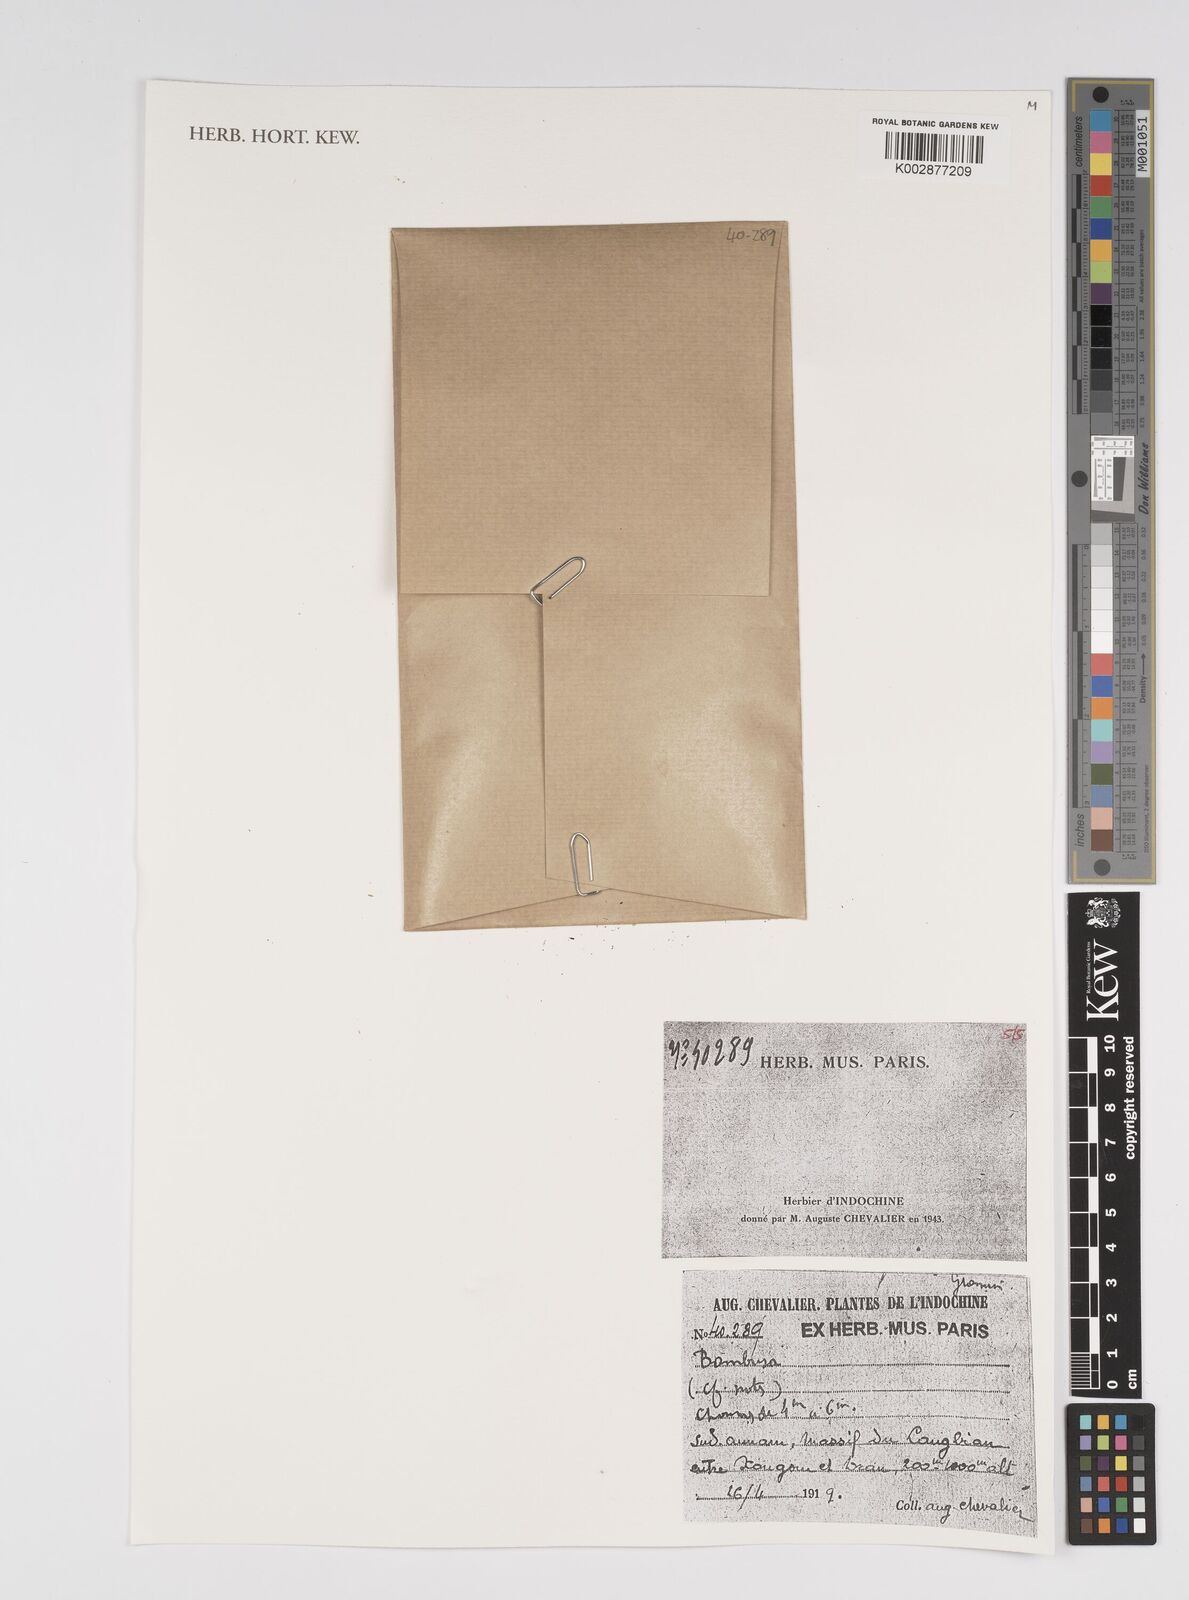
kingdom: Plantae
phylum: Tracheophyta
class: Liliopsida
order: Poales
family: Poaceae
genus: Bambusa
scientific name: Bambusa
